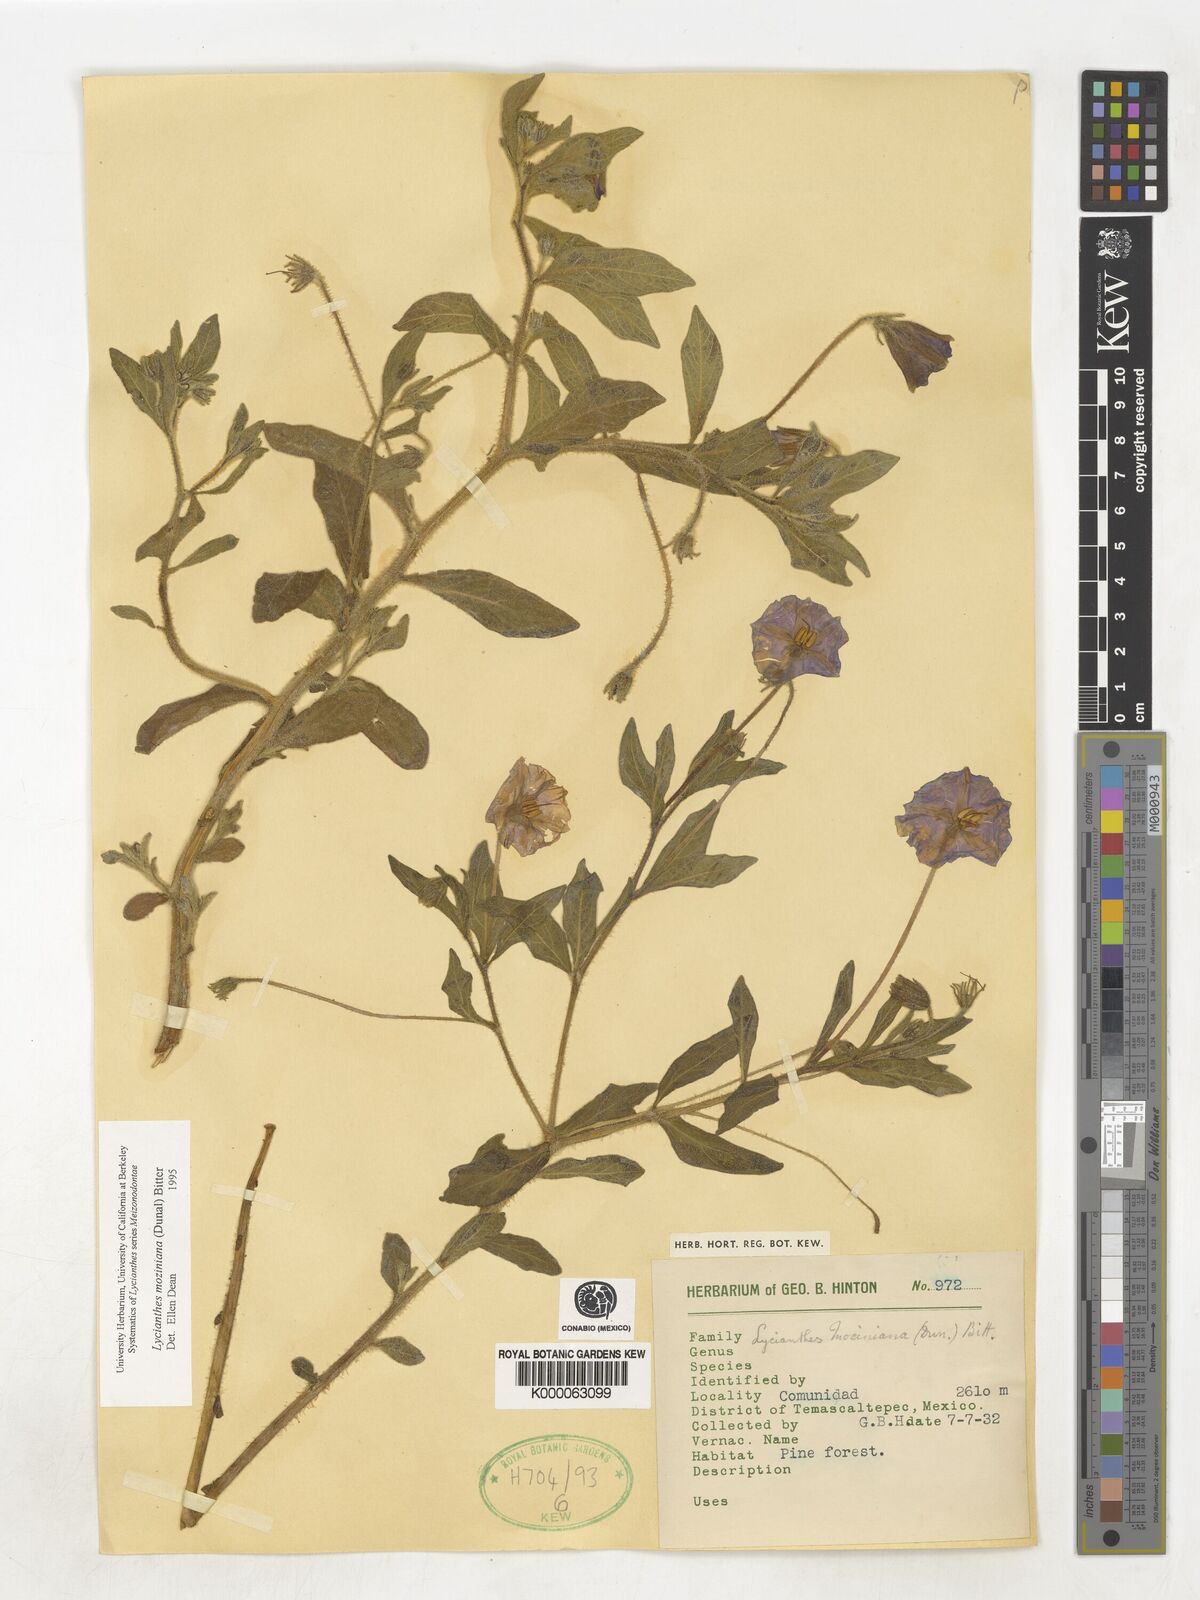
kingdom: Plantae
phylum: Tracheophyta
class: Magnoliopsida
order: Solanales
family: Solanaceae
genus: Lycianthes
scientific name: Lycianthes mozinoana
